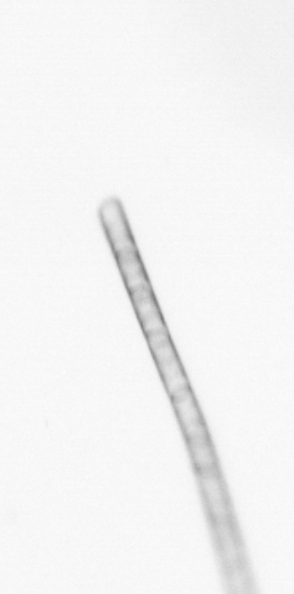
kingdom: Chromista
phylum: Ochrophyta
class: Bacillariophyceae
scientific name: Bacillariophyceae
